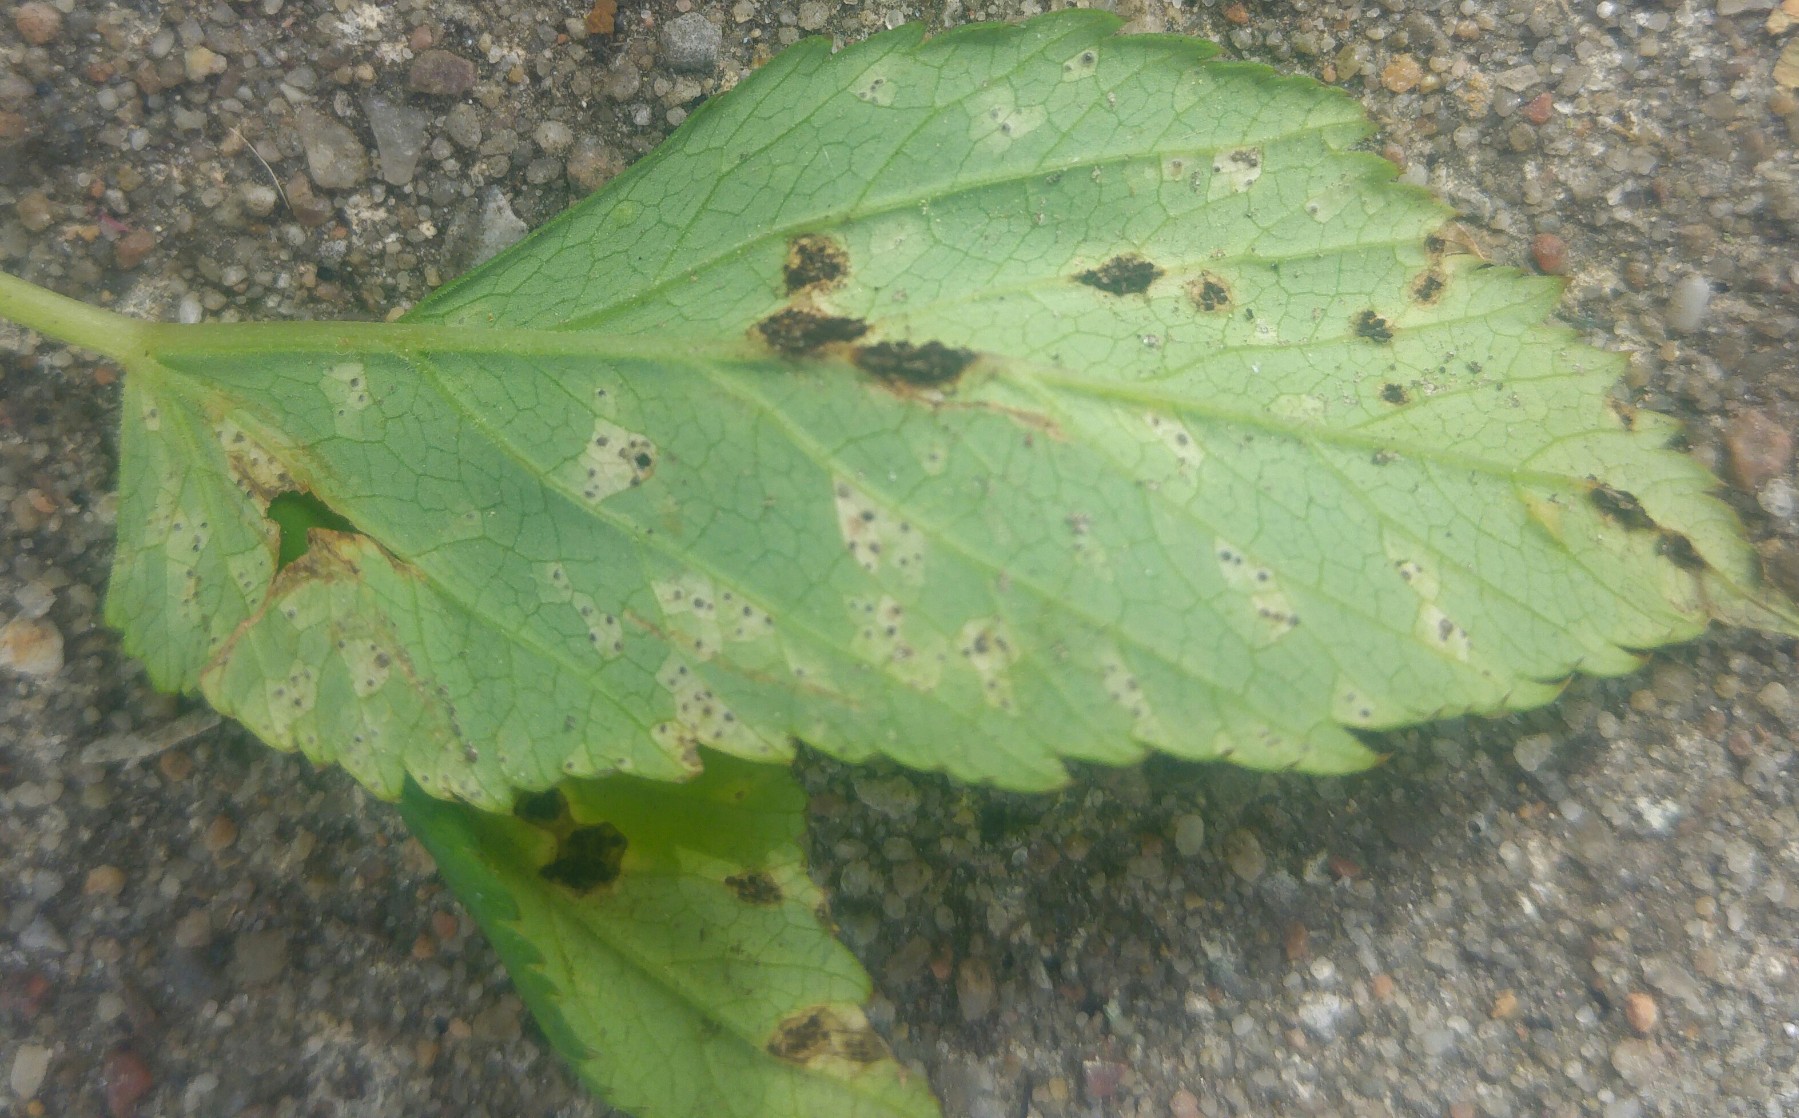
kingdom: Fungi
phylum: Basidiomycota
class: Pucciniomycetes
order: Pucciniales
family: Pucciniaceae
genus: Puccinia
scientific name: Puccinia
